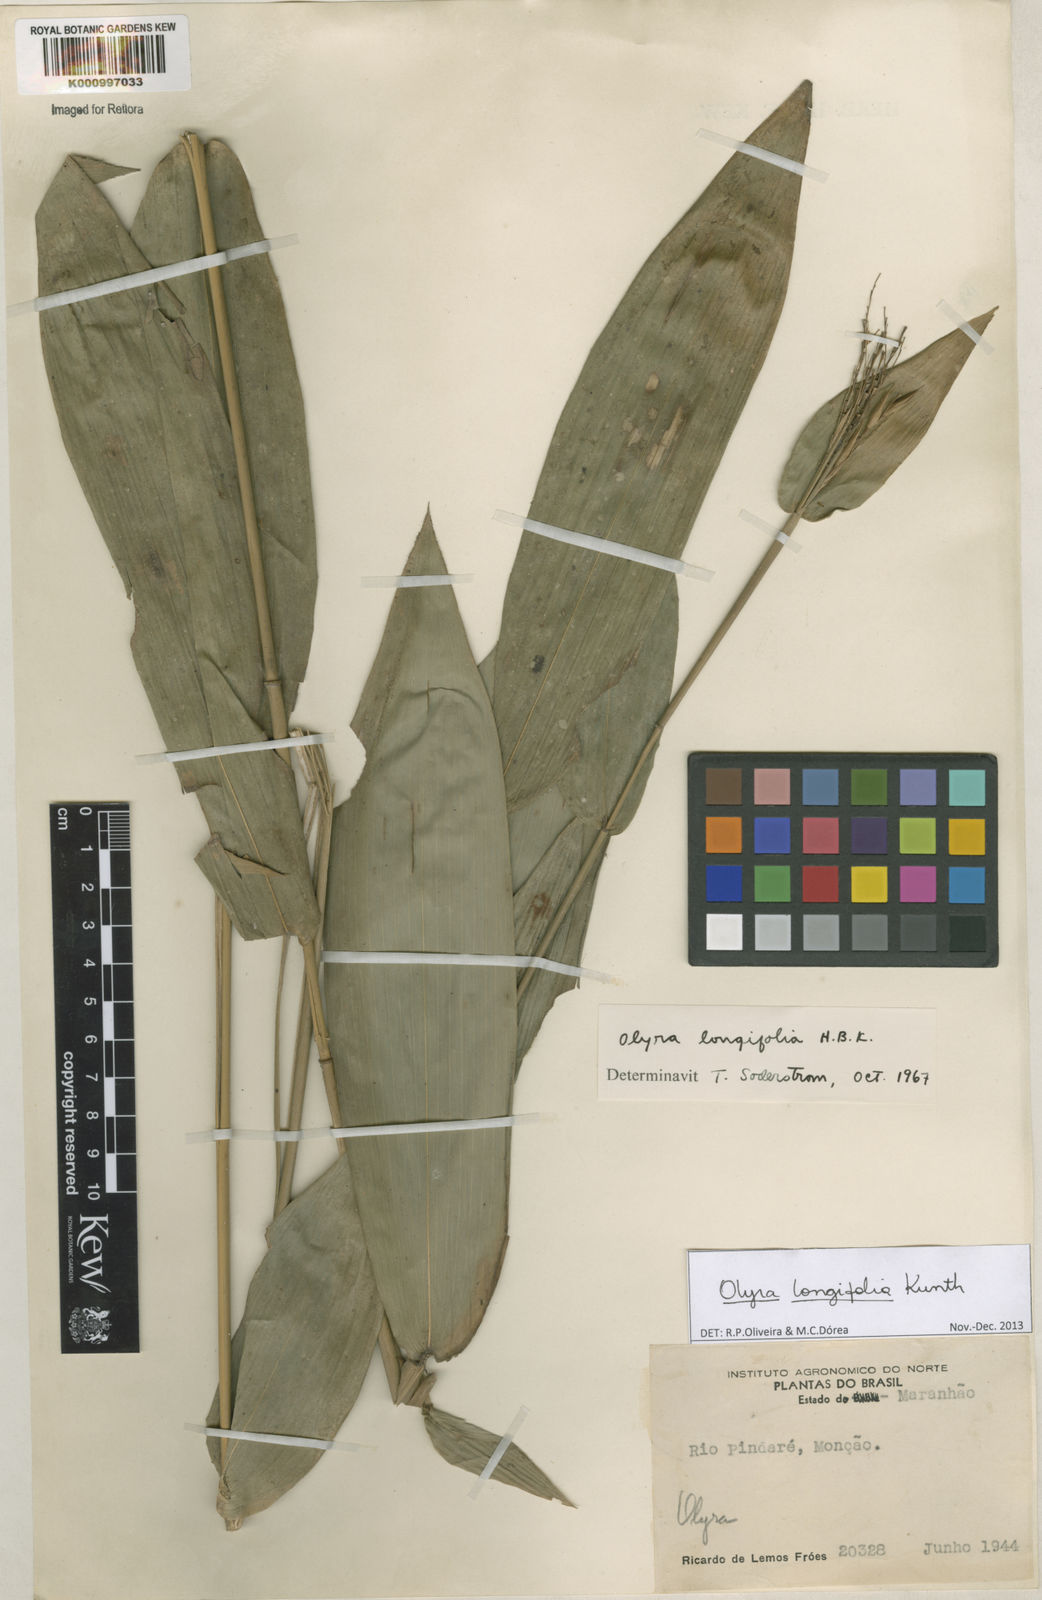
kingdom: Plantae
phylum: Tracheophyta
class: Liliopsida
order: Poales
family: Poaceae
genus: Olyra
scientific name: Olyra longifolia
